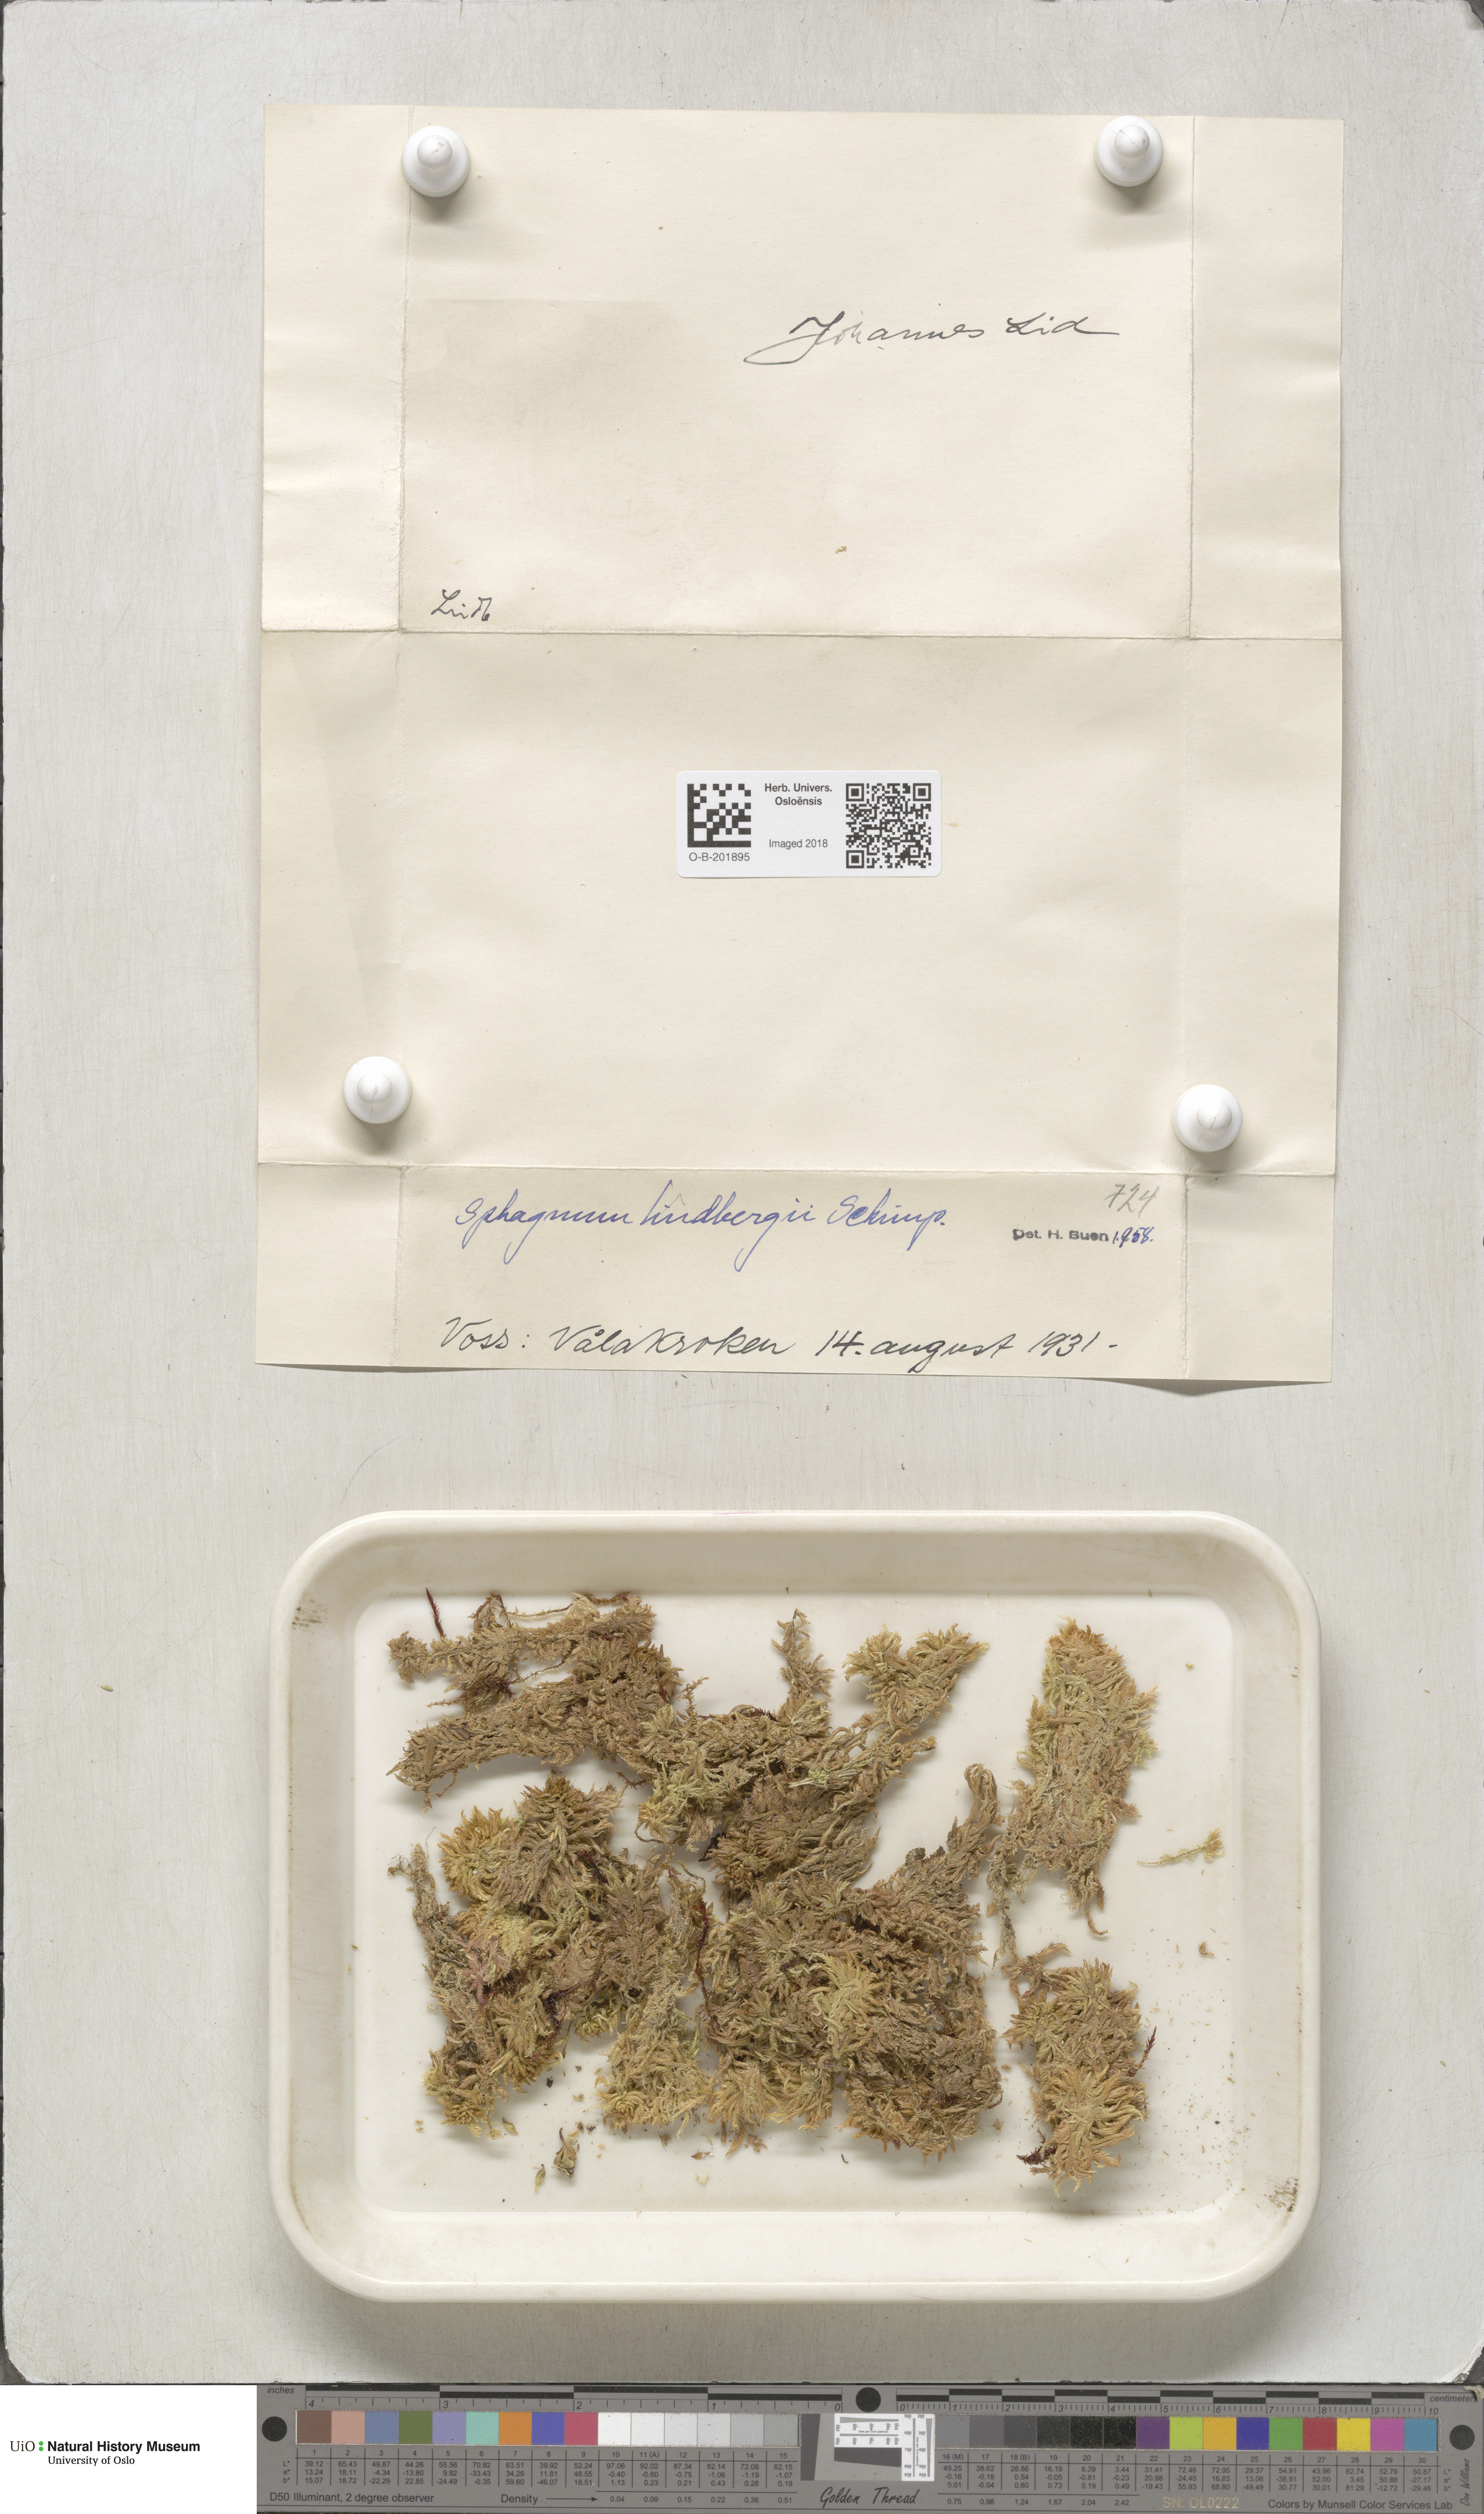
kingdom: Plantae
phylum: Bryophyta
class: Sphagnopsida
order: Sphagnales
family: Sphagnaceae
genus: Sphagnum
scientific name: Sphagnum lindbergii
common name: Lindberg's peat moss
